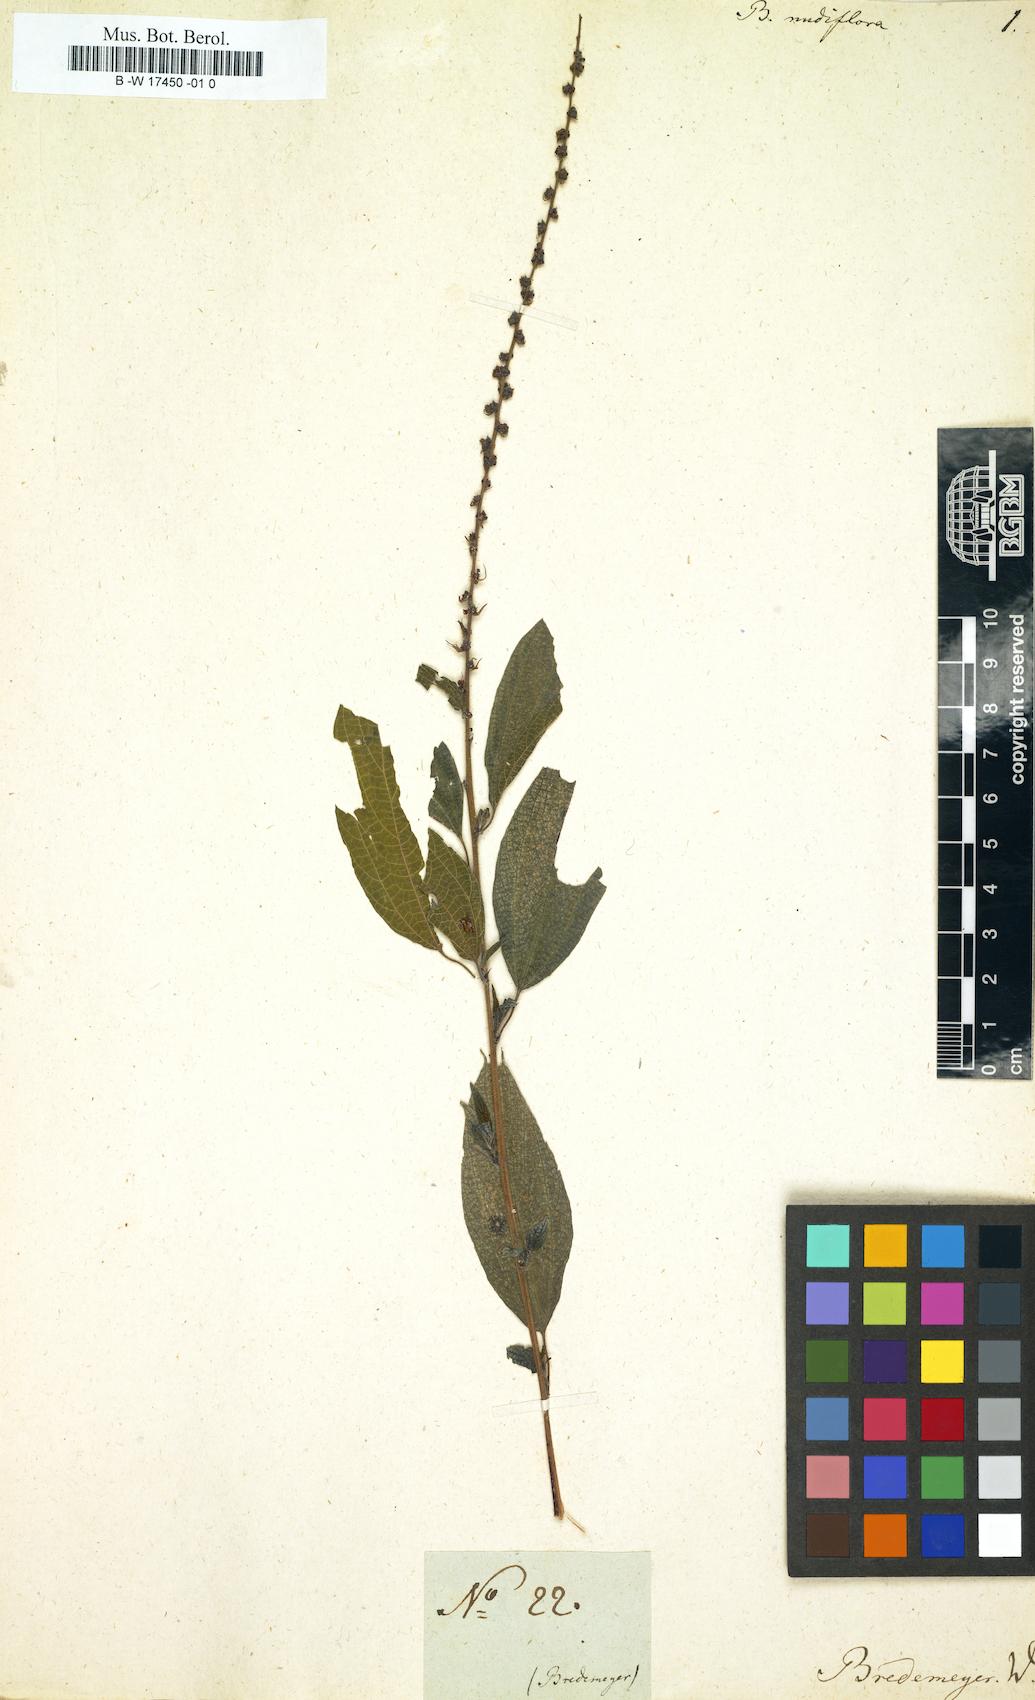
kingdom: Plantae
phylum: Tracheophyta
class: Magnoliopsida
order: Rosales
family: Urticaceae
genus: Pouzolzia
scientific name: Pouzolzia nudiflora
